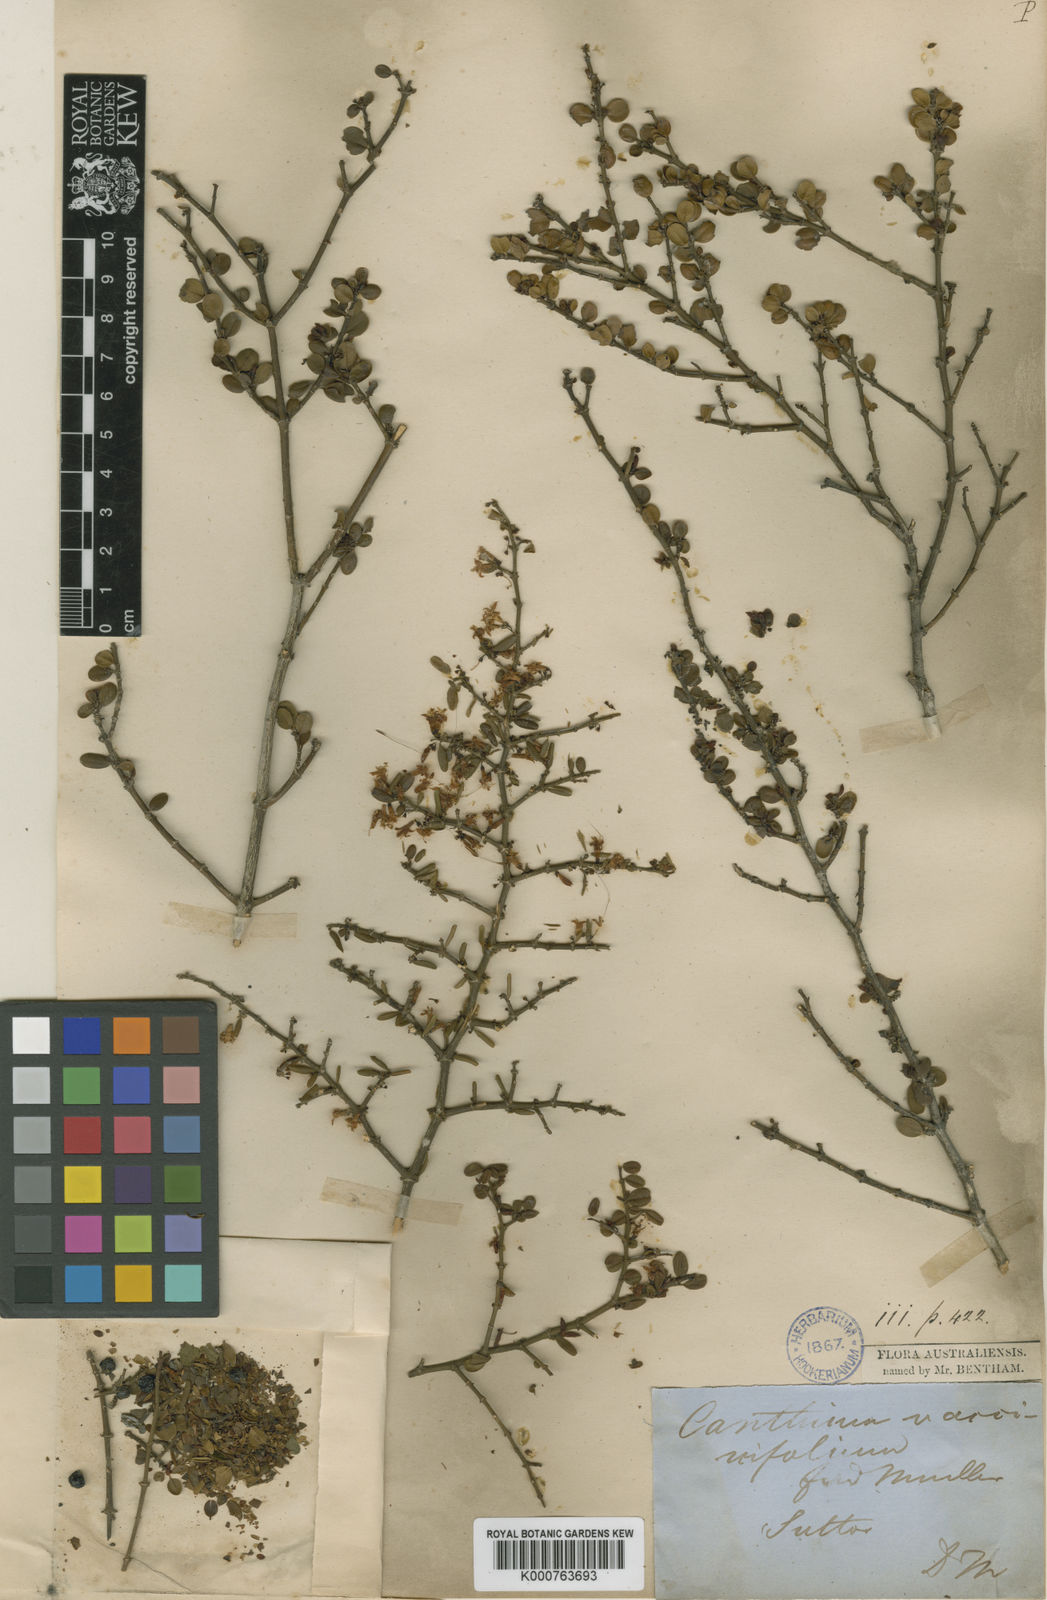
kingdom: Plantae
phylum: Tracheophyta
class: Magnoliopsida
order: Gentianales
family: Rubiaceae
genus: Everistia
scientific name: Everistia vacciniifolia
